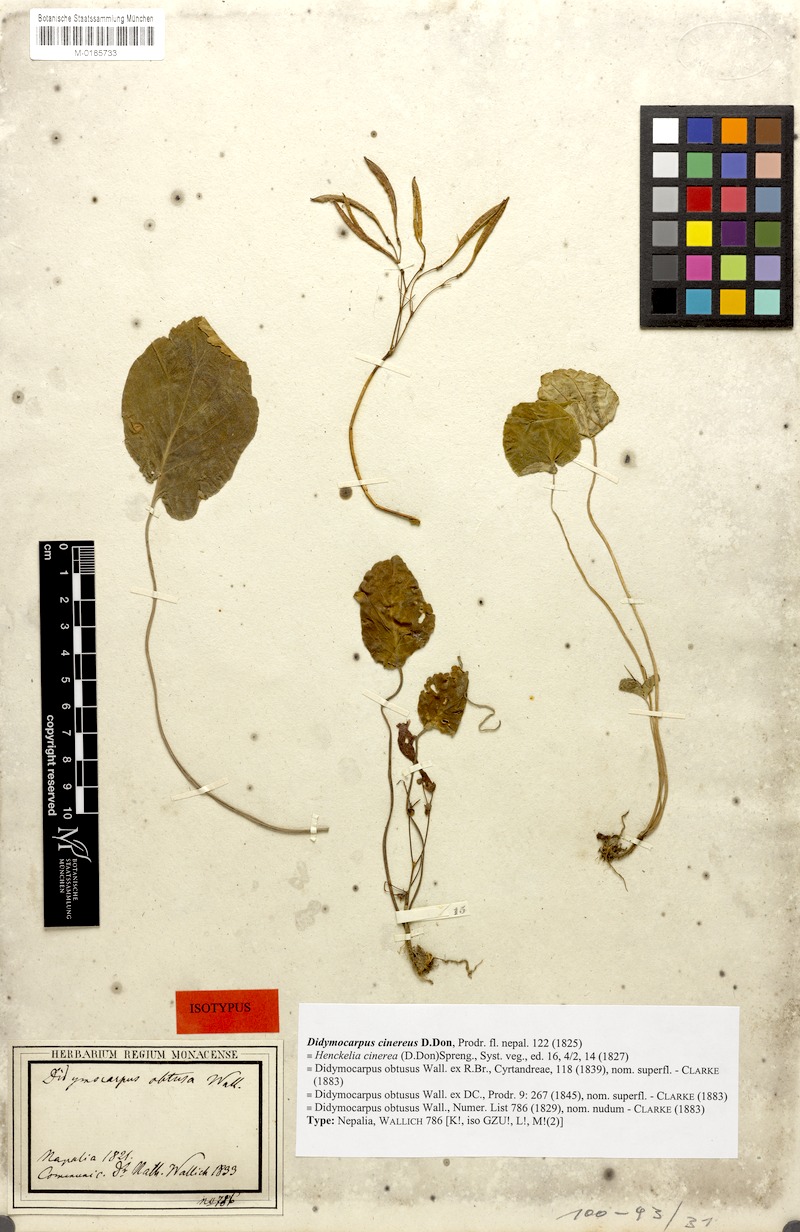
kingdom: Plantae
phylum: Tracheophyta
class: Magnoliopsida
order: Lamiales
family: Gesneriaceae
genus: Didymocarpus
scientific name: Didymocarpus cinerea
